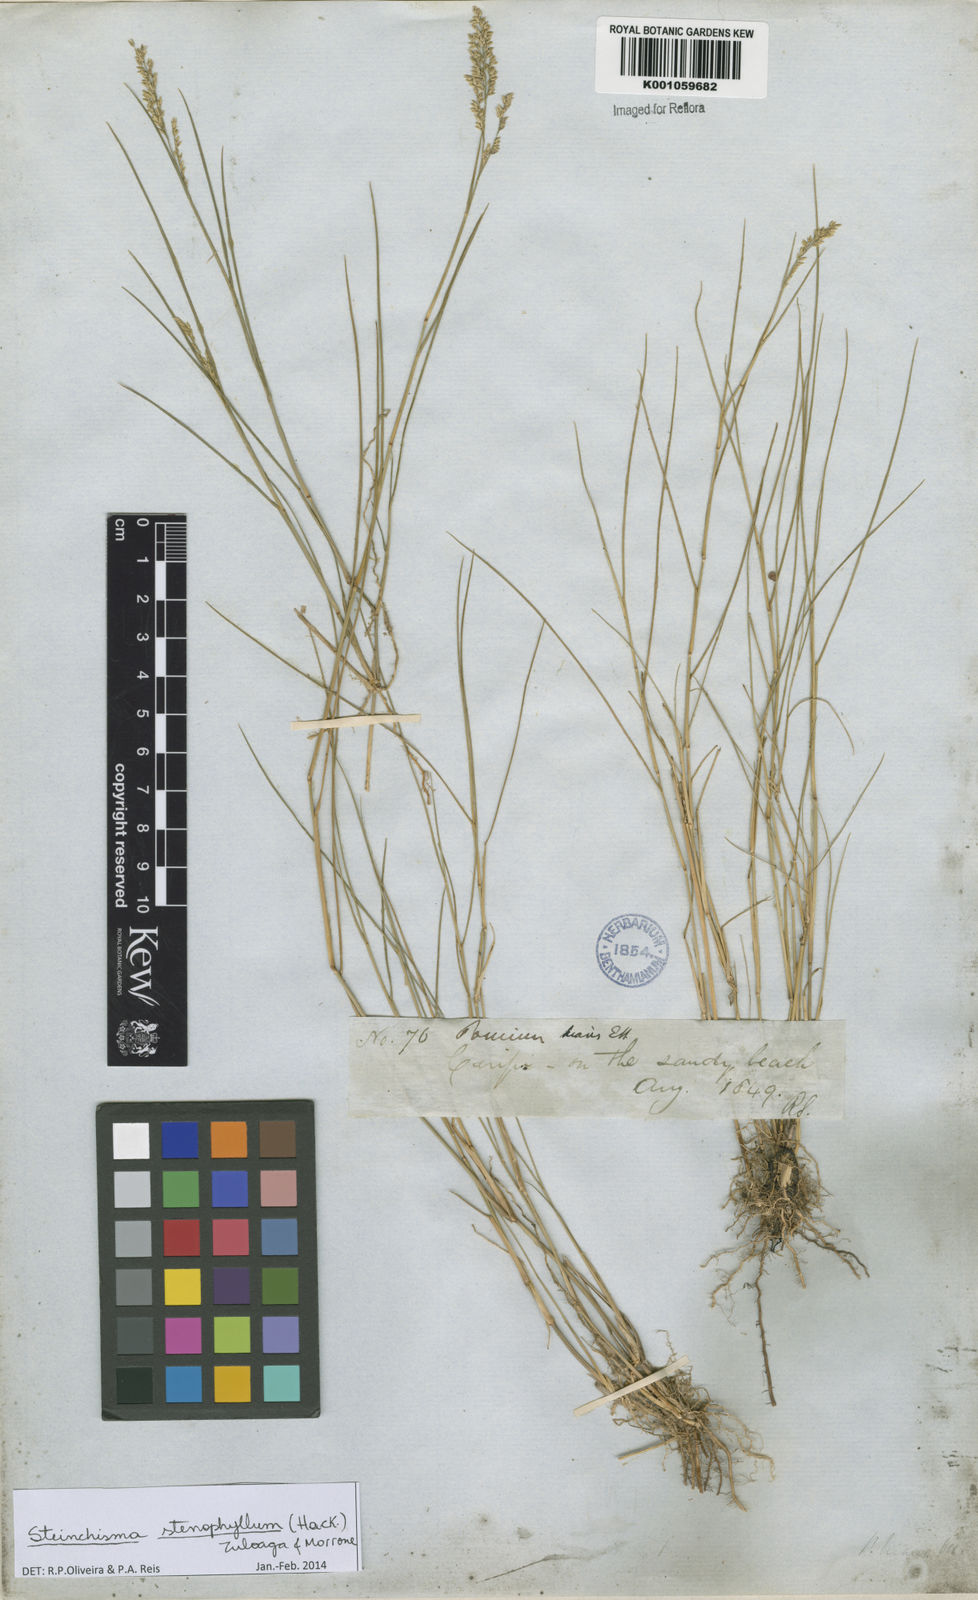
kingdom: Plantae
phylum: Tracheophyta
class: Liliopsida
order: Poales
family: Poaceae
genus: Steinchisma
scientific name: Steinchisma stenophyllum
